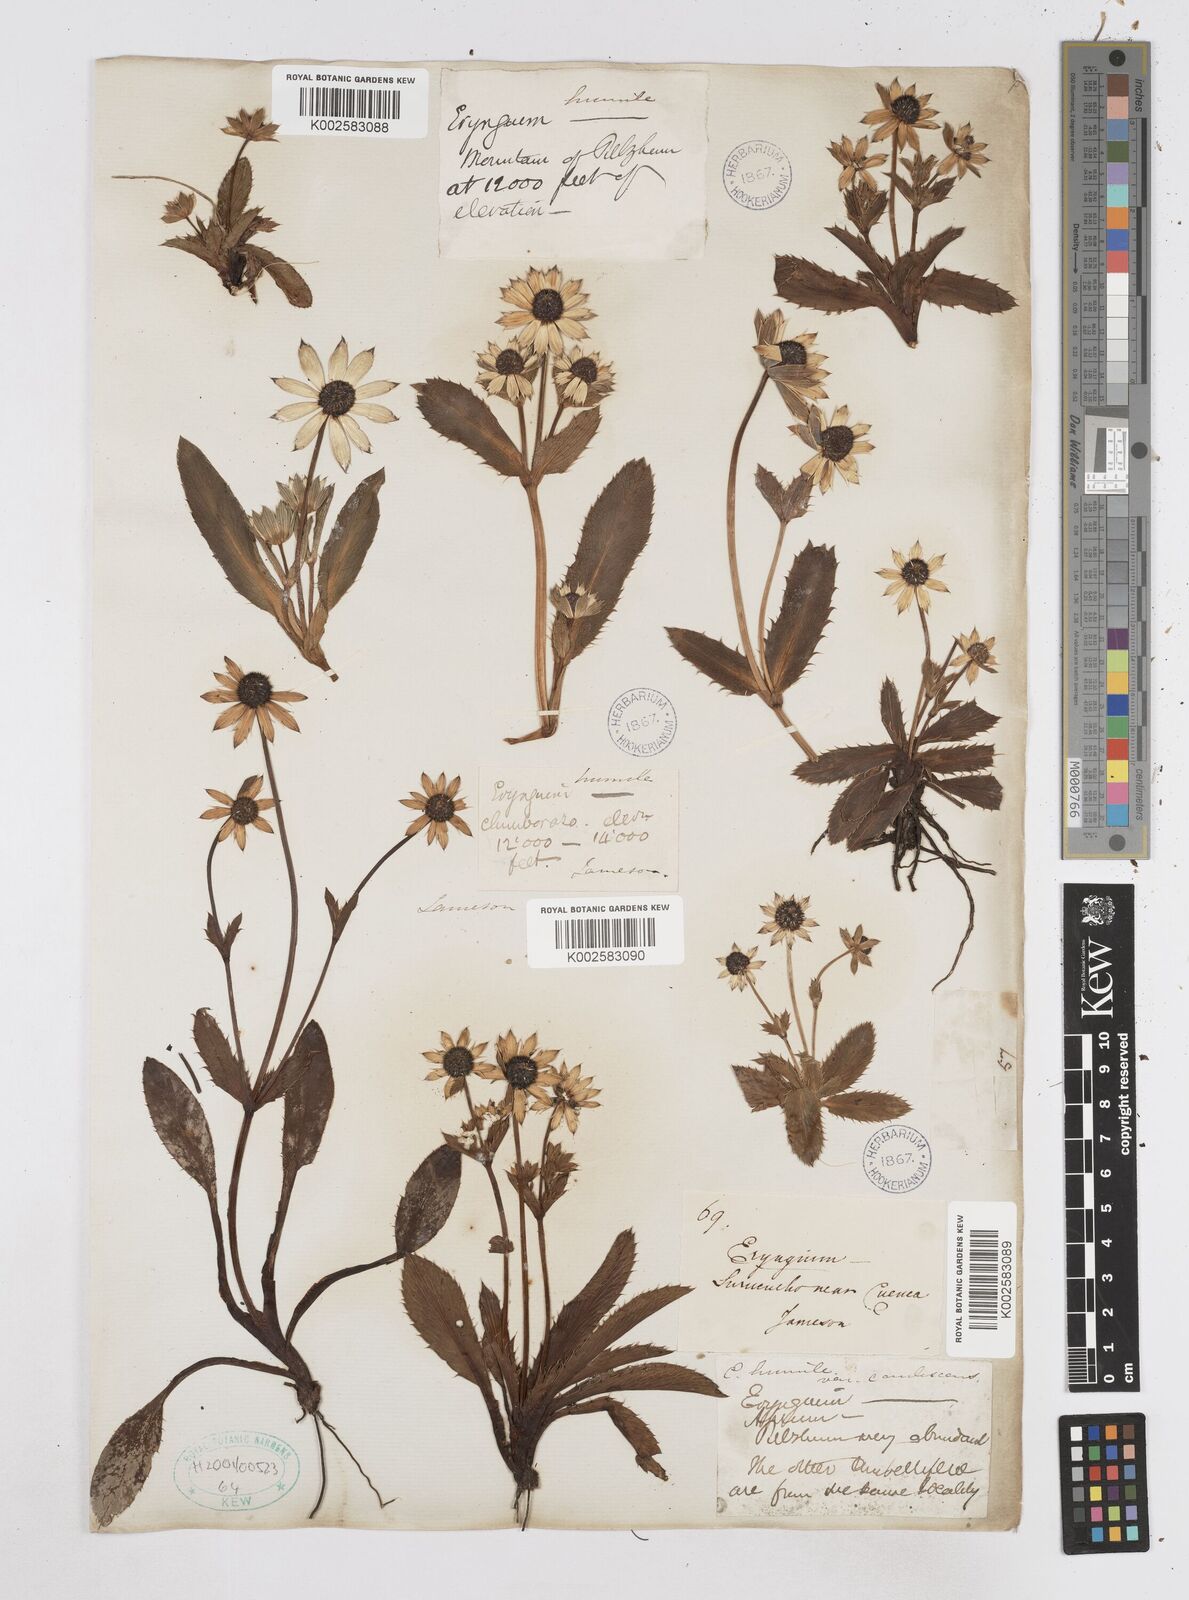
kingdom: Plantae
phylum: Tracheophyta
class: Magnoliopsida
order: Apiales
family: Apiaceae
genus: Eryngium
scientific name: Eryngium humile
